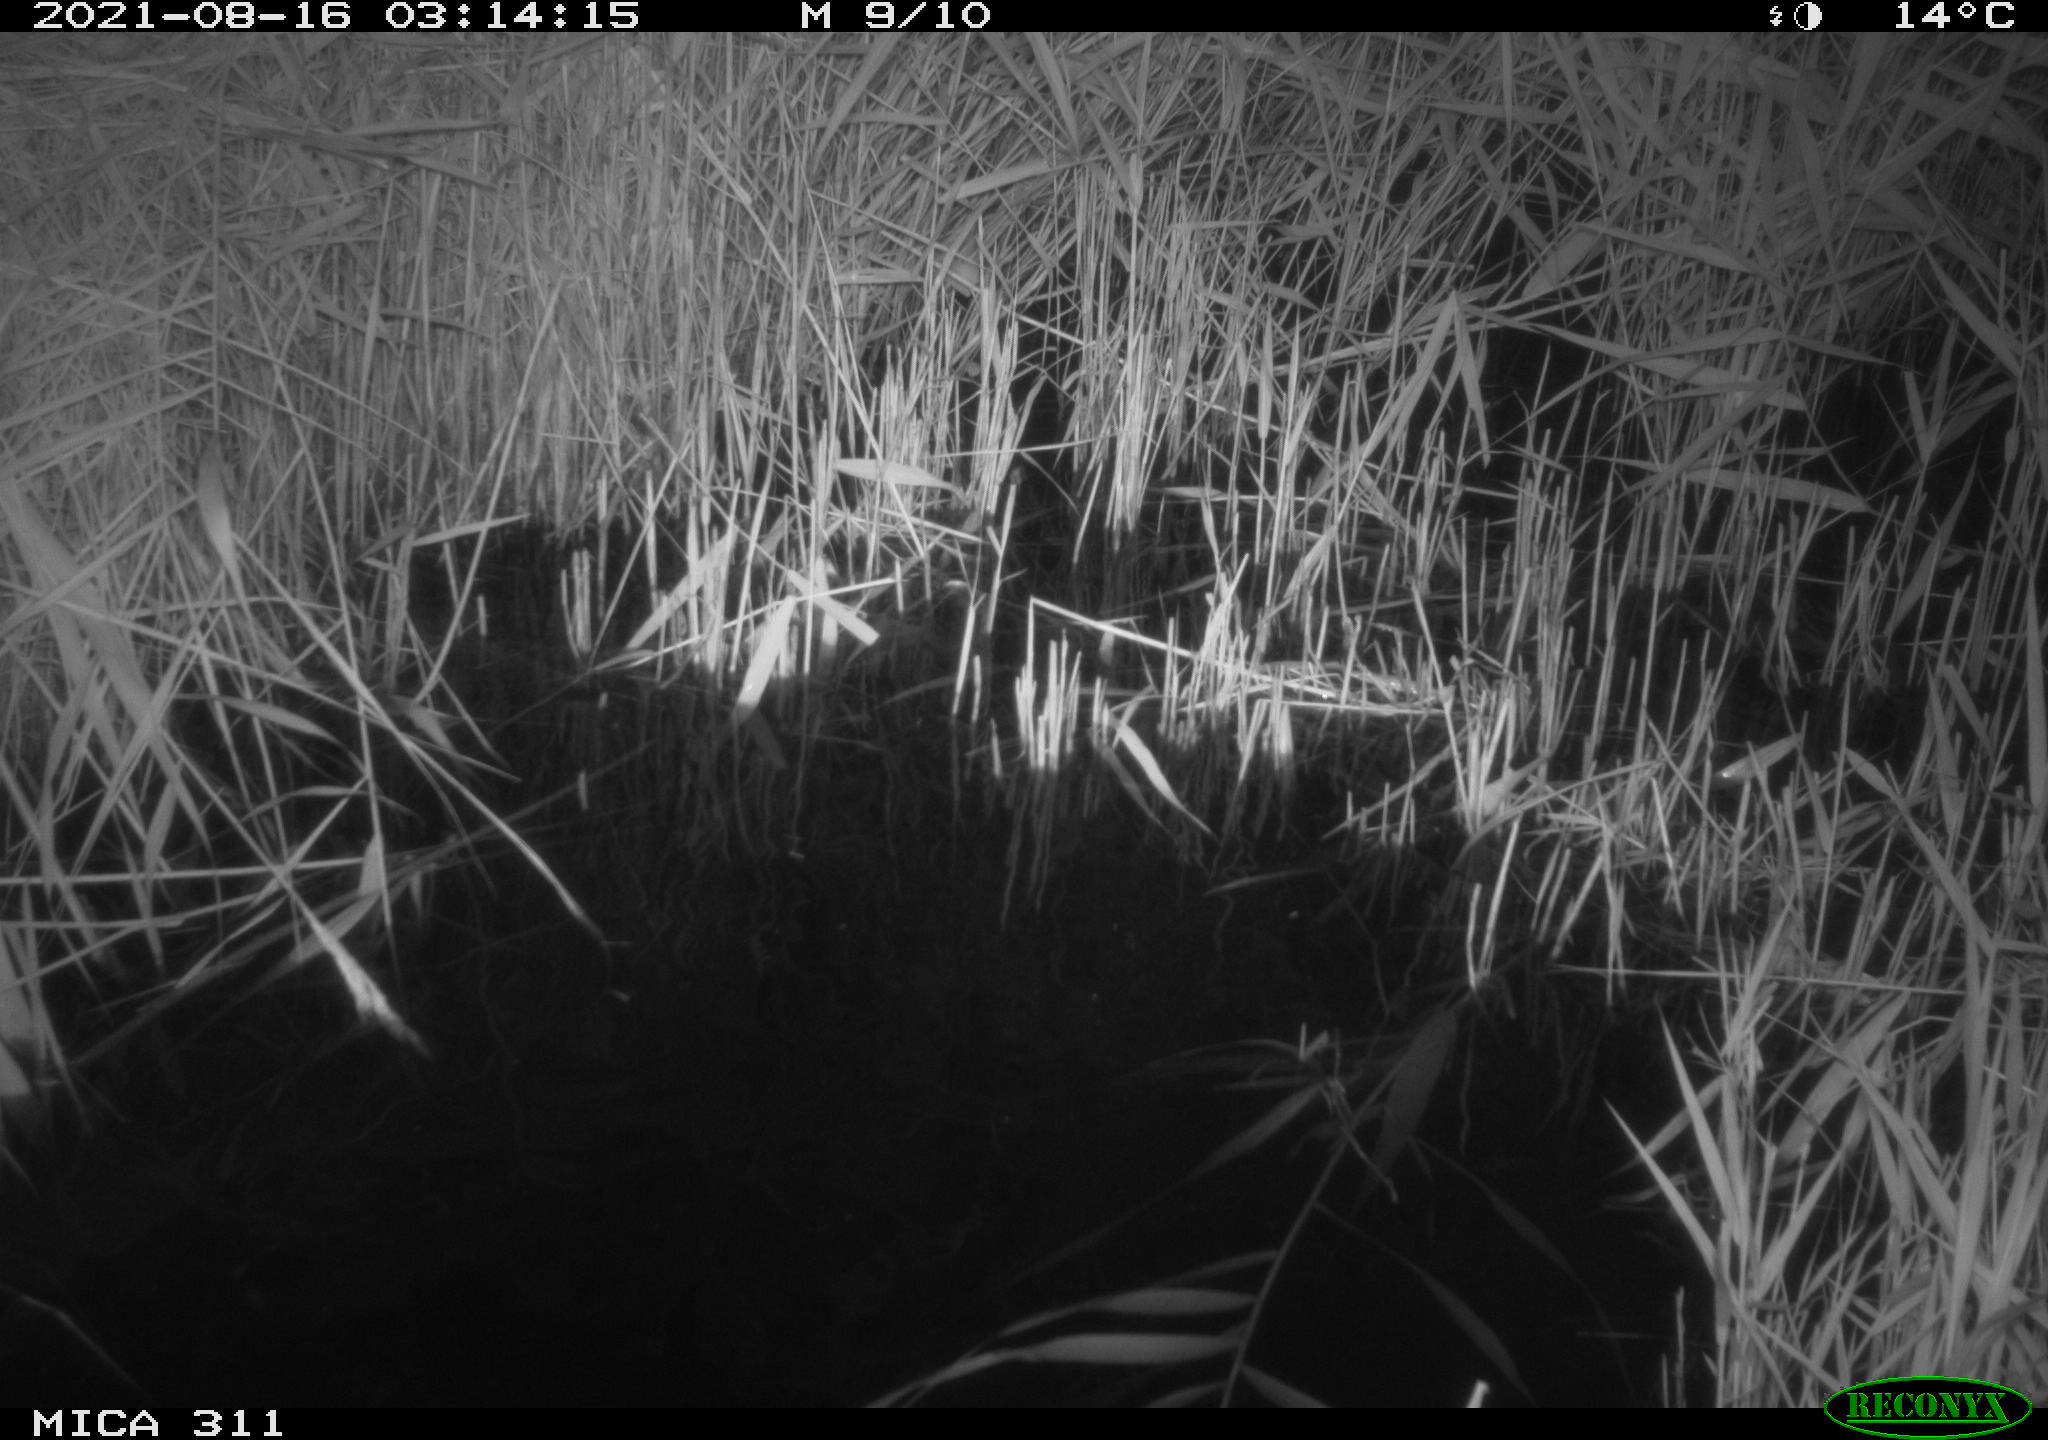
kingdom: Animalia
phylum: Chordata
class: Mammalia
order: Rodentia
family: Muridae
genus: Rattus
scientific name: Rattus norvegicus
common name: Brown rat
